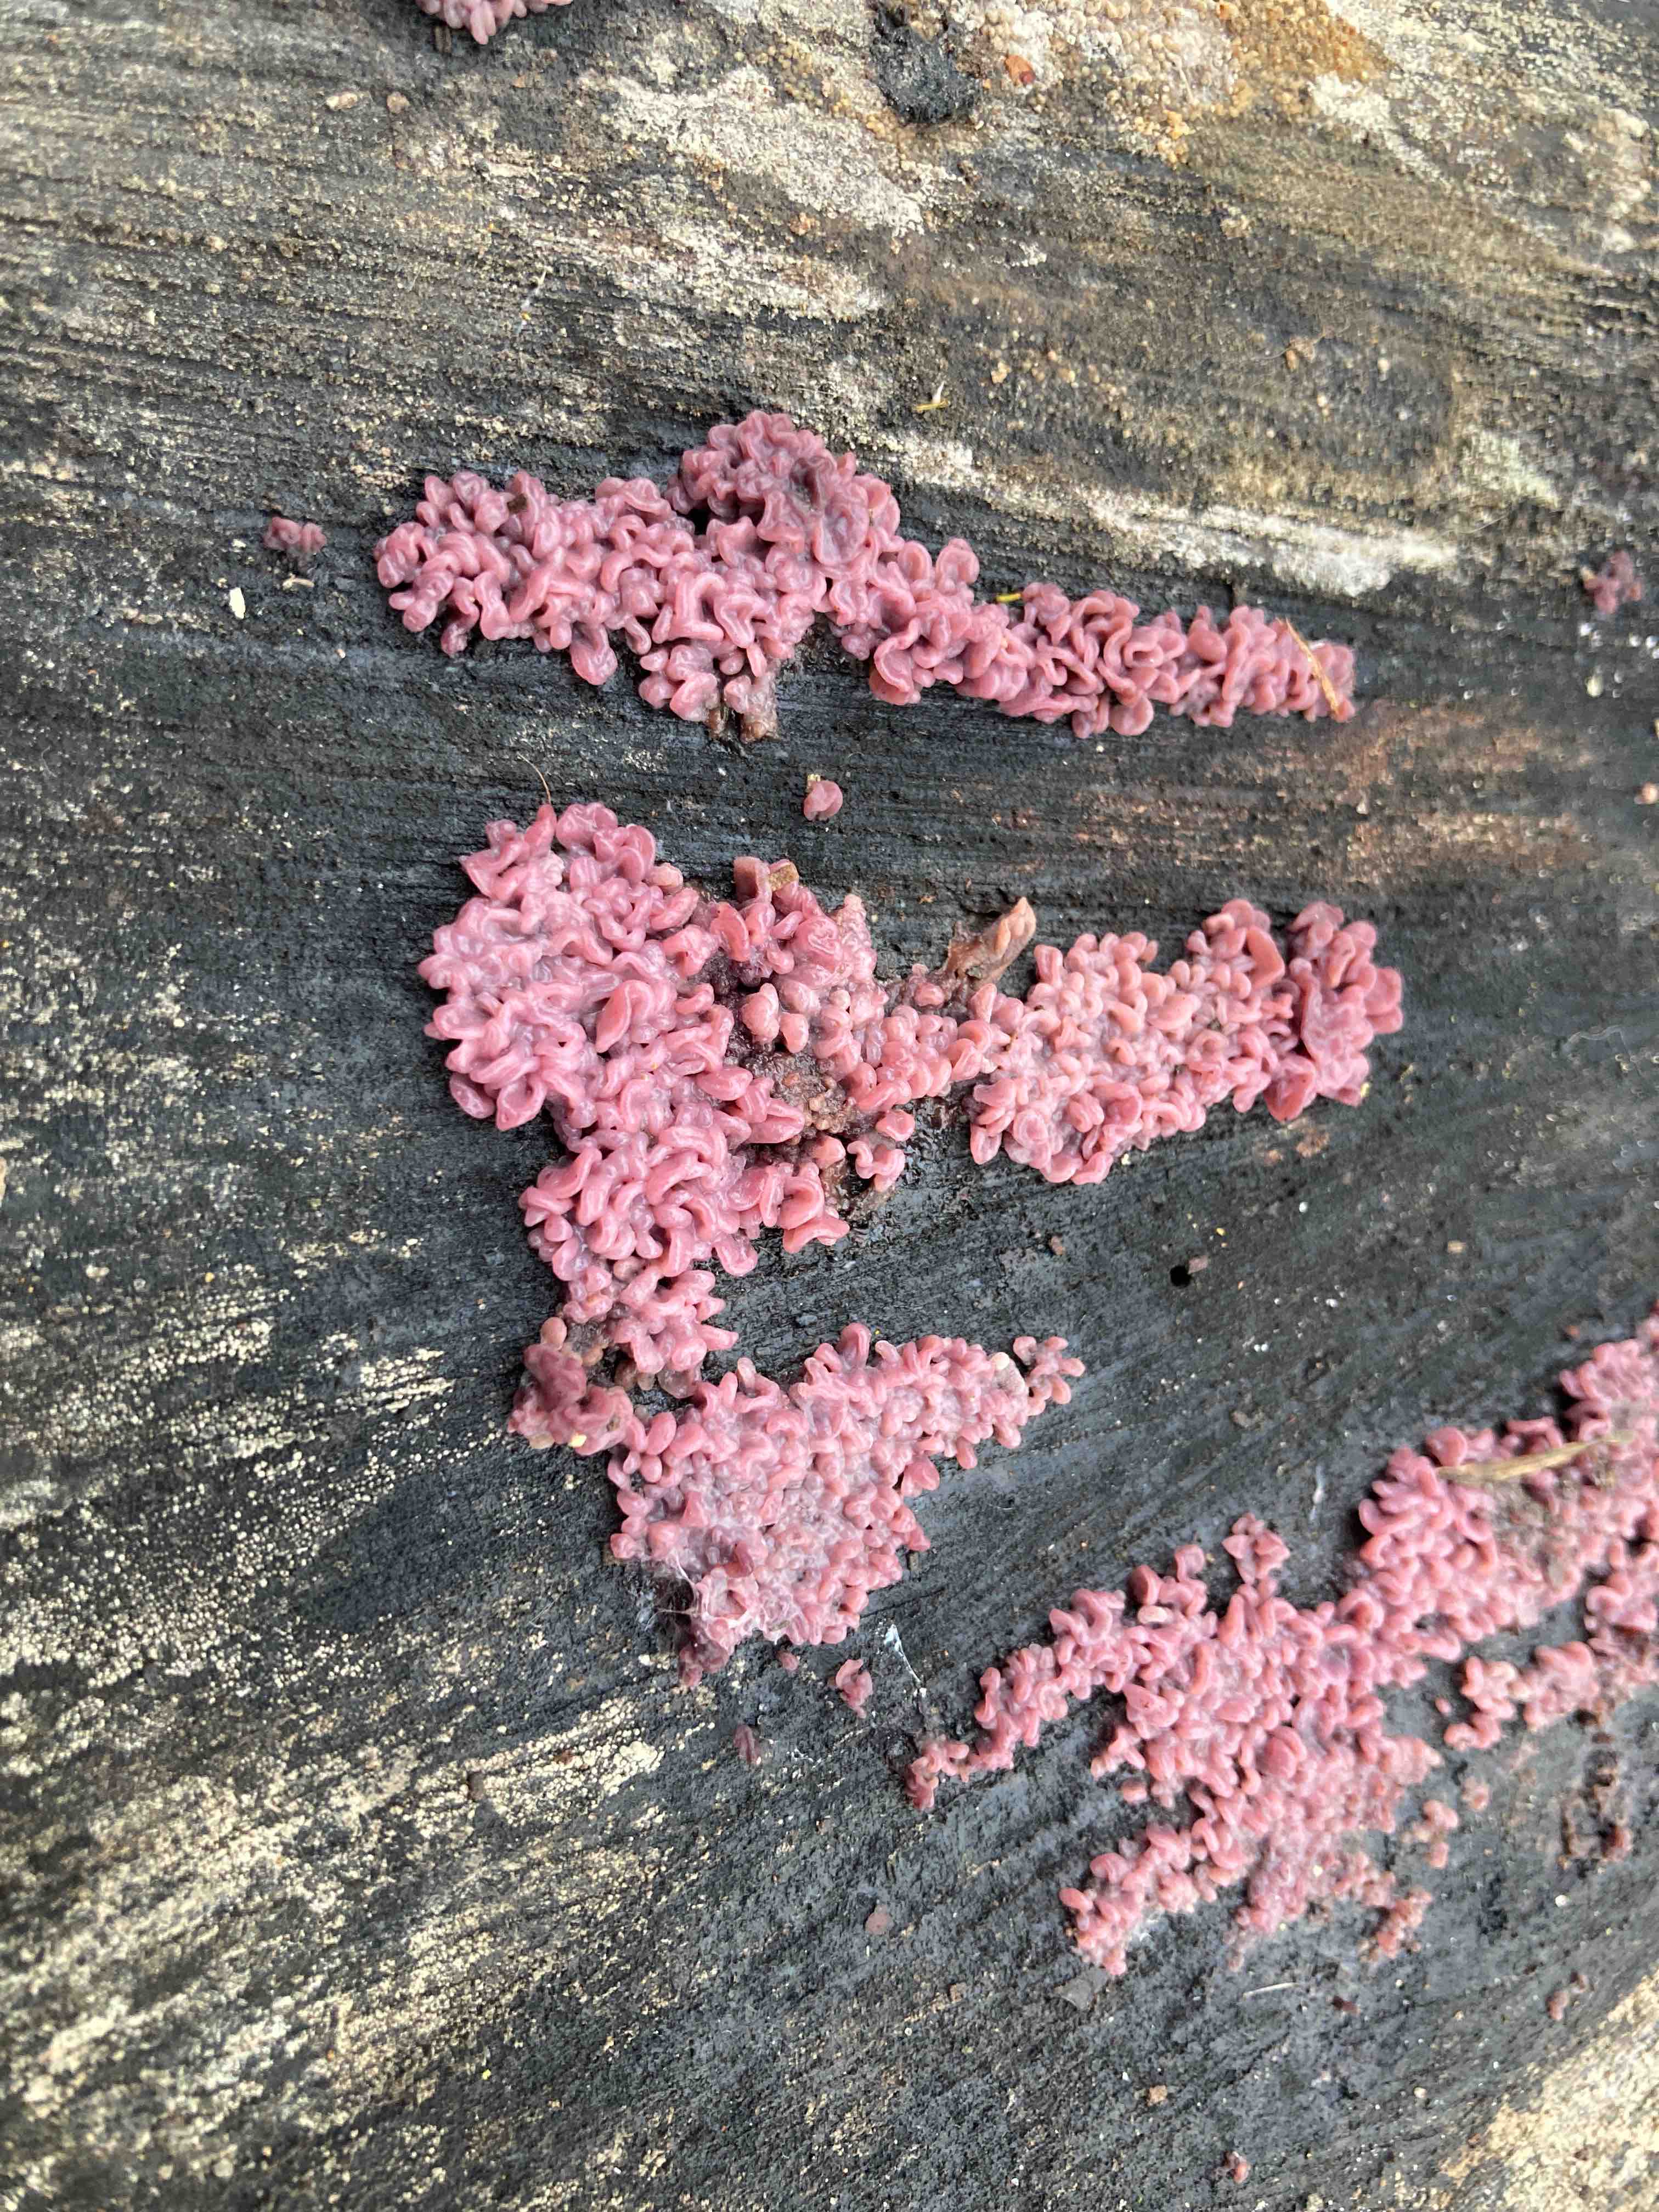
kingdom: Fungi
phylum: Ascomycota
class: Leotiomycetes
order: Helotiales
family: Gelatinodiscaceae
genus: Ascocoryne
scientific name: Ascocoryne sarcoides
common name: rødlilla sejskive
